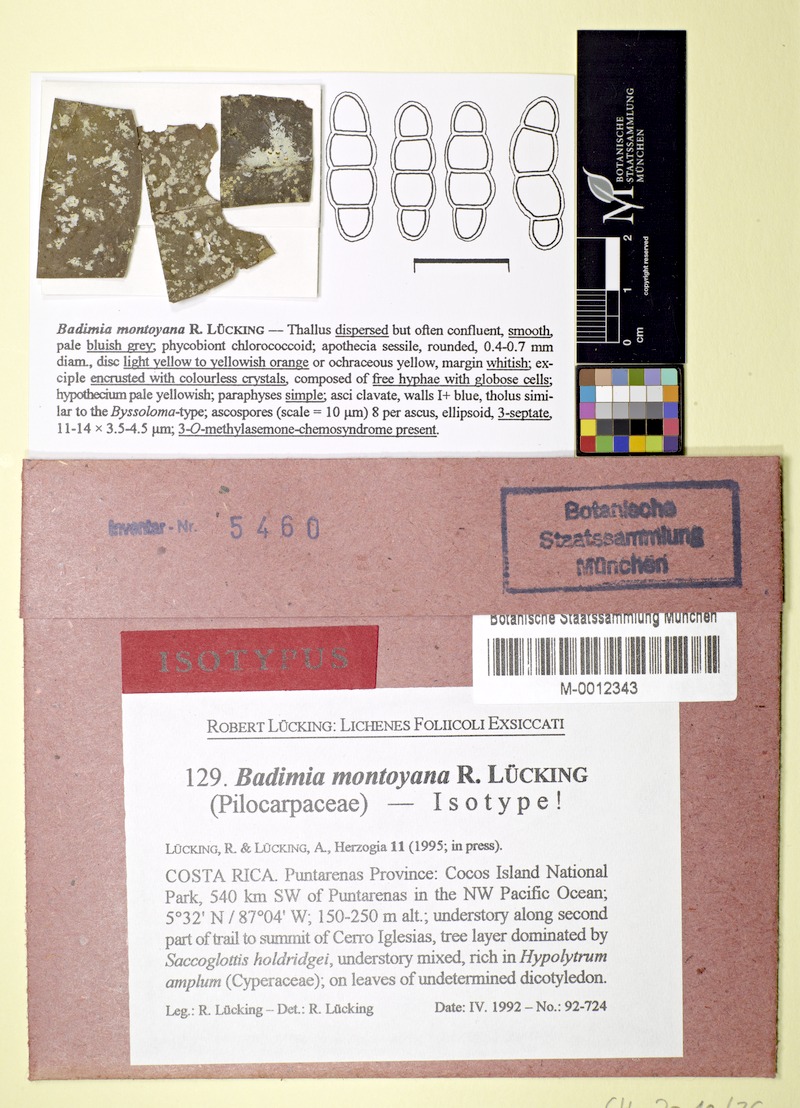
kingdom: Fungi
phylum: Ascomycota
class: Lecanoromycetes
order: Lecanorales
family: Ramalinaceae
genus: Badimia
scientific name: Badimia montoyana
